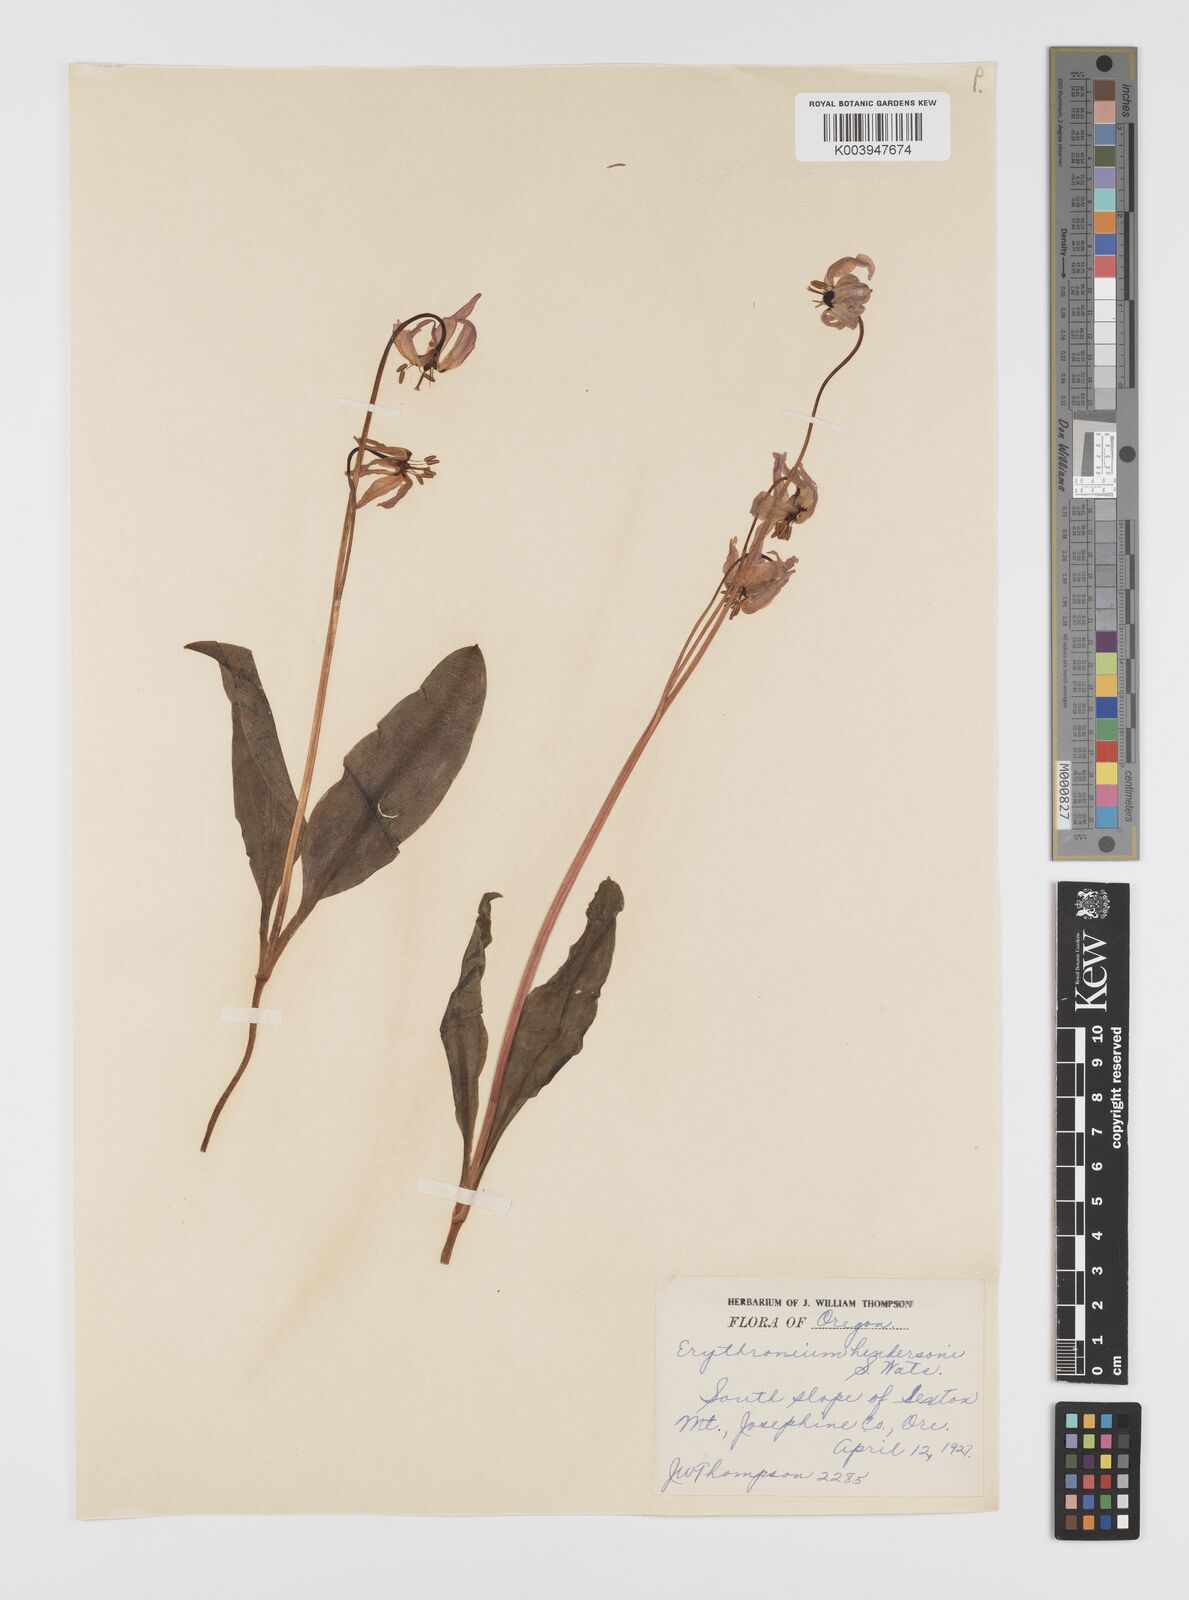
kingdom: Plantae
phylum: Tracheophyta
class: Liliopsida
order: Liliales
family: Liliaceae
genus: Erythronium
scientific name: Erythronium hendersonii
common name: Henderson's fawn-lily
